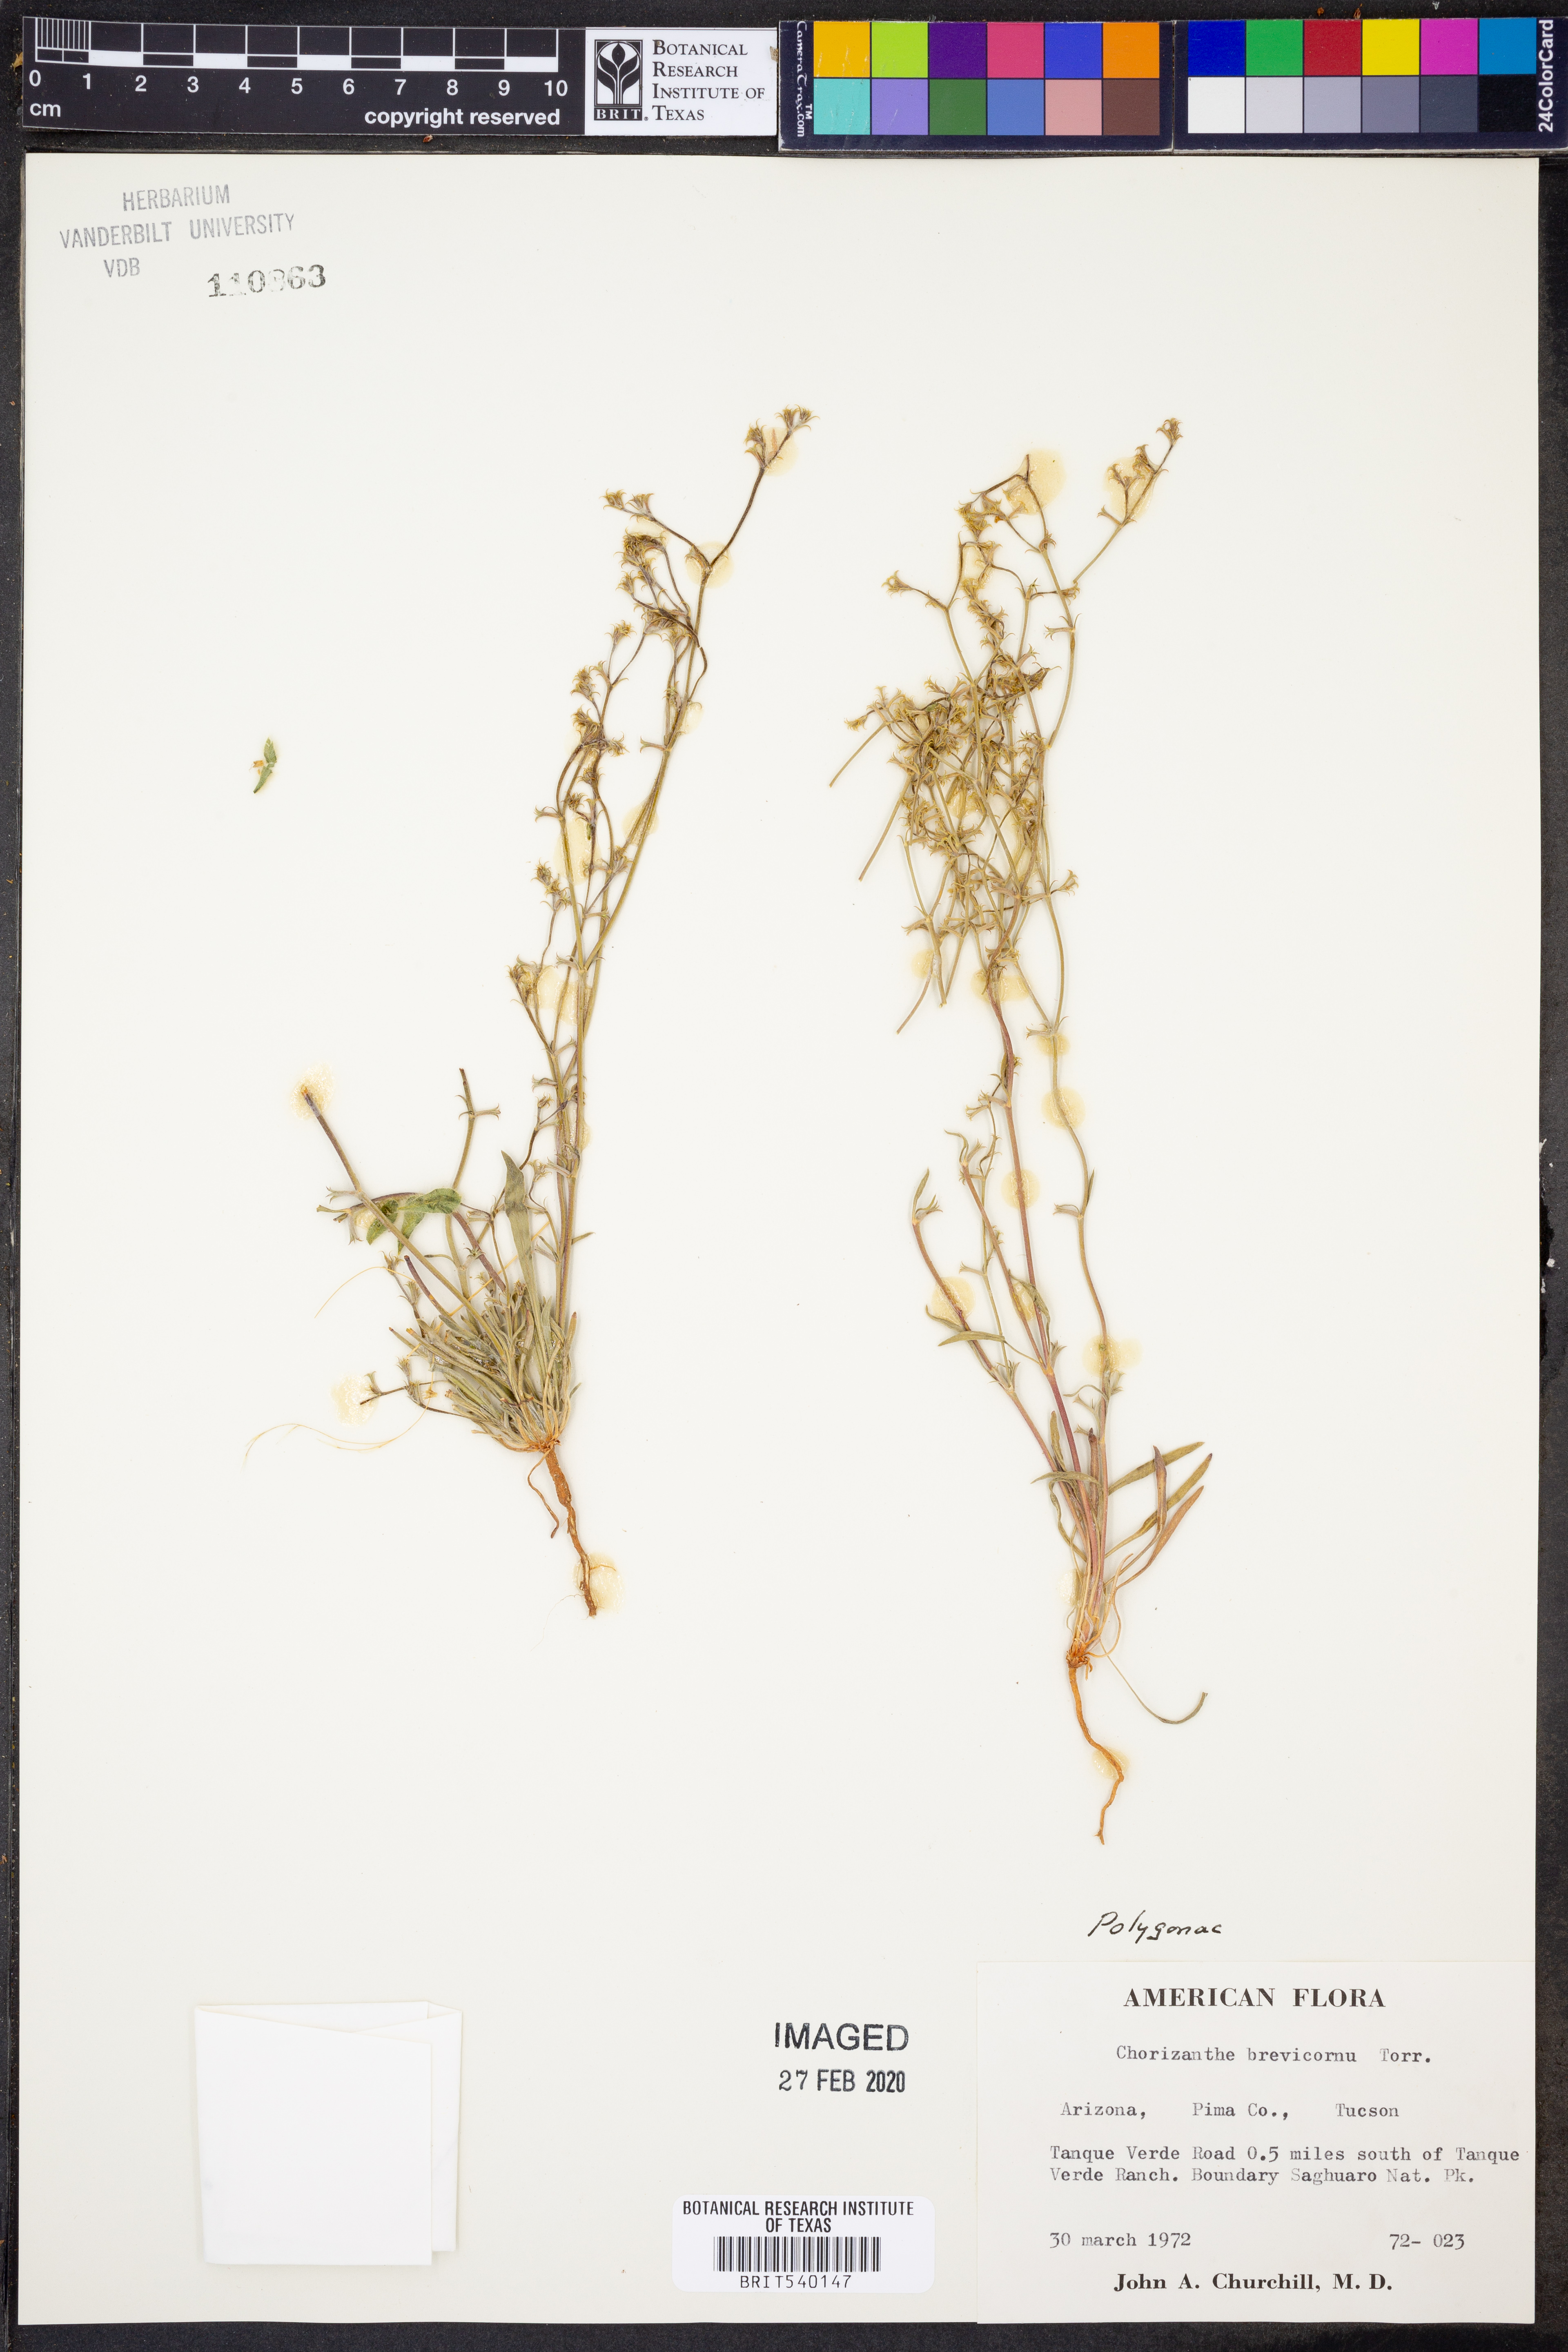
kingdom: Plantae
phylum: Tracheophyta
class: Magnoliopsida
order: Caryophyllales
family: Polygonaceae
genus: Chorizanthe
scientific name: Chorizanthe brevicornu
